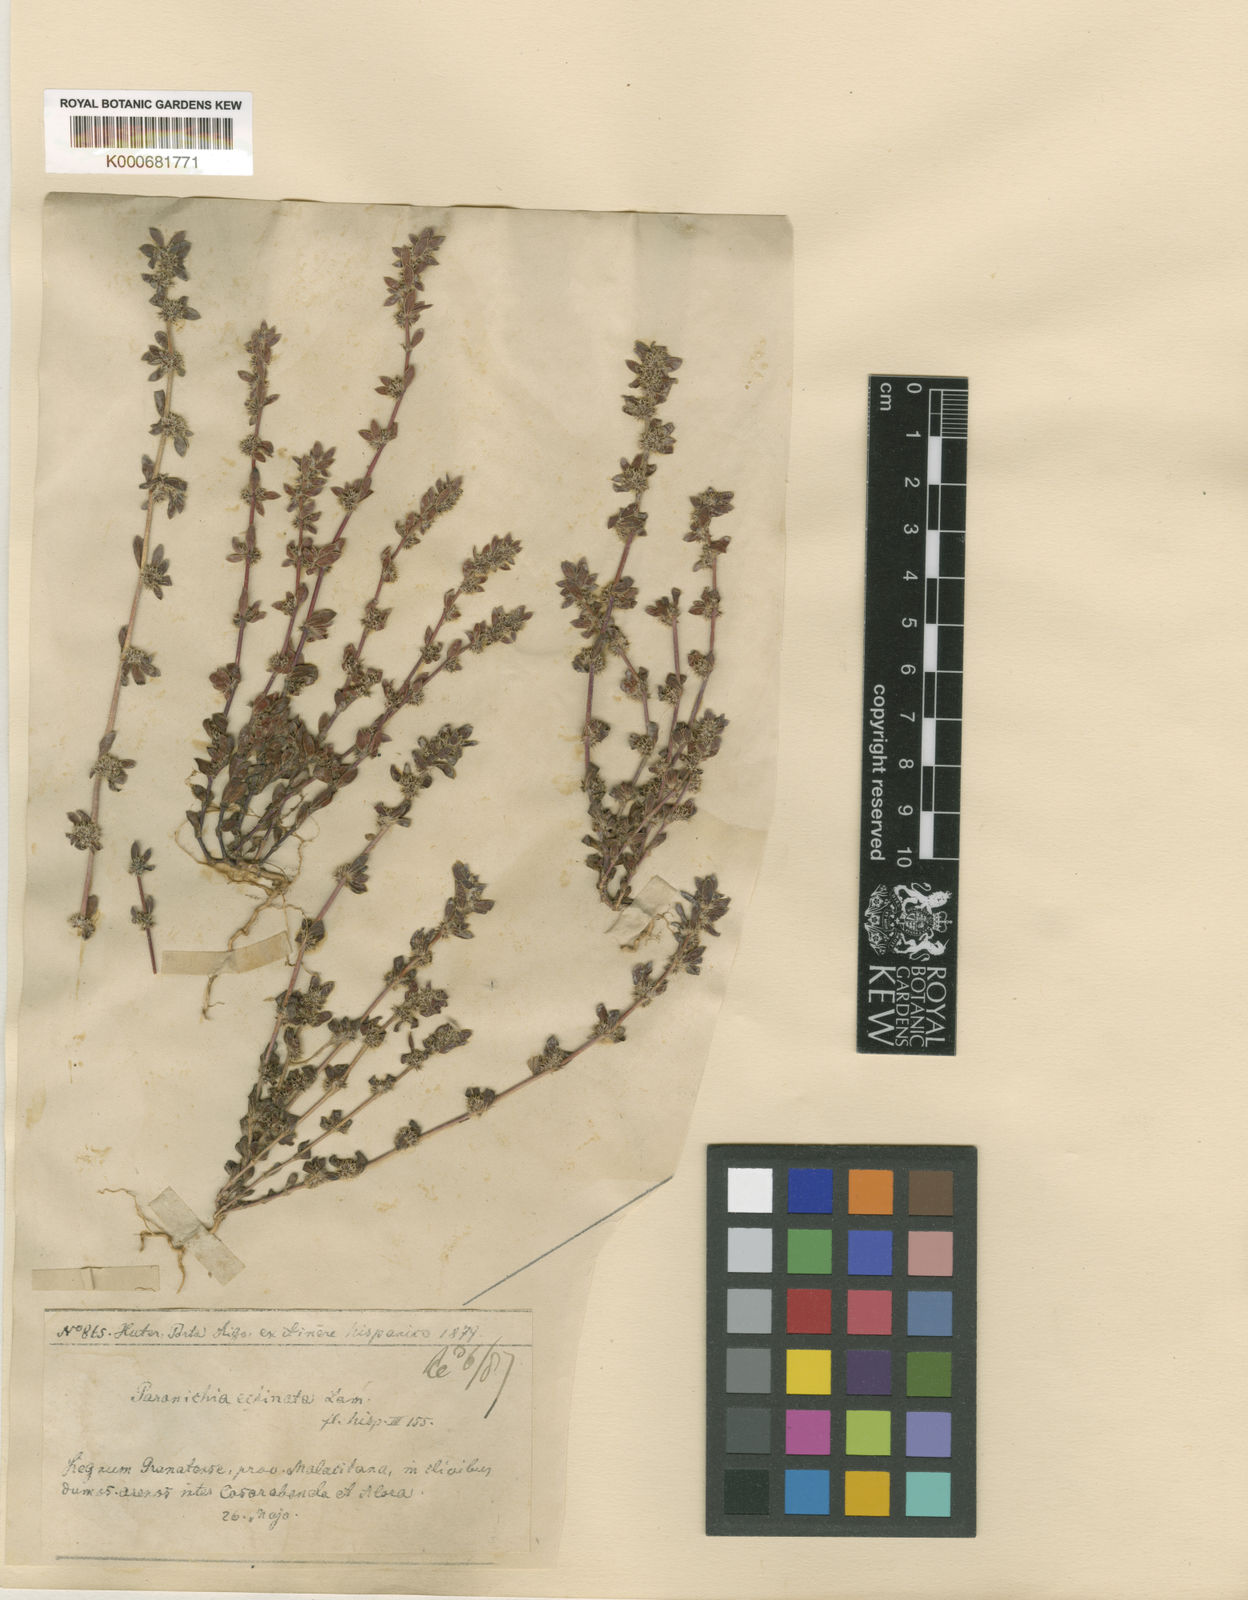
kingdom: Plantae
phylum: Tracheophyta
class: Magnoliopsida
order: Caryophyllales
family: Caryophyllaceae
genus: Paronychia
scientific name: Paronychia echinulata
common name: Eurasian nailwort
